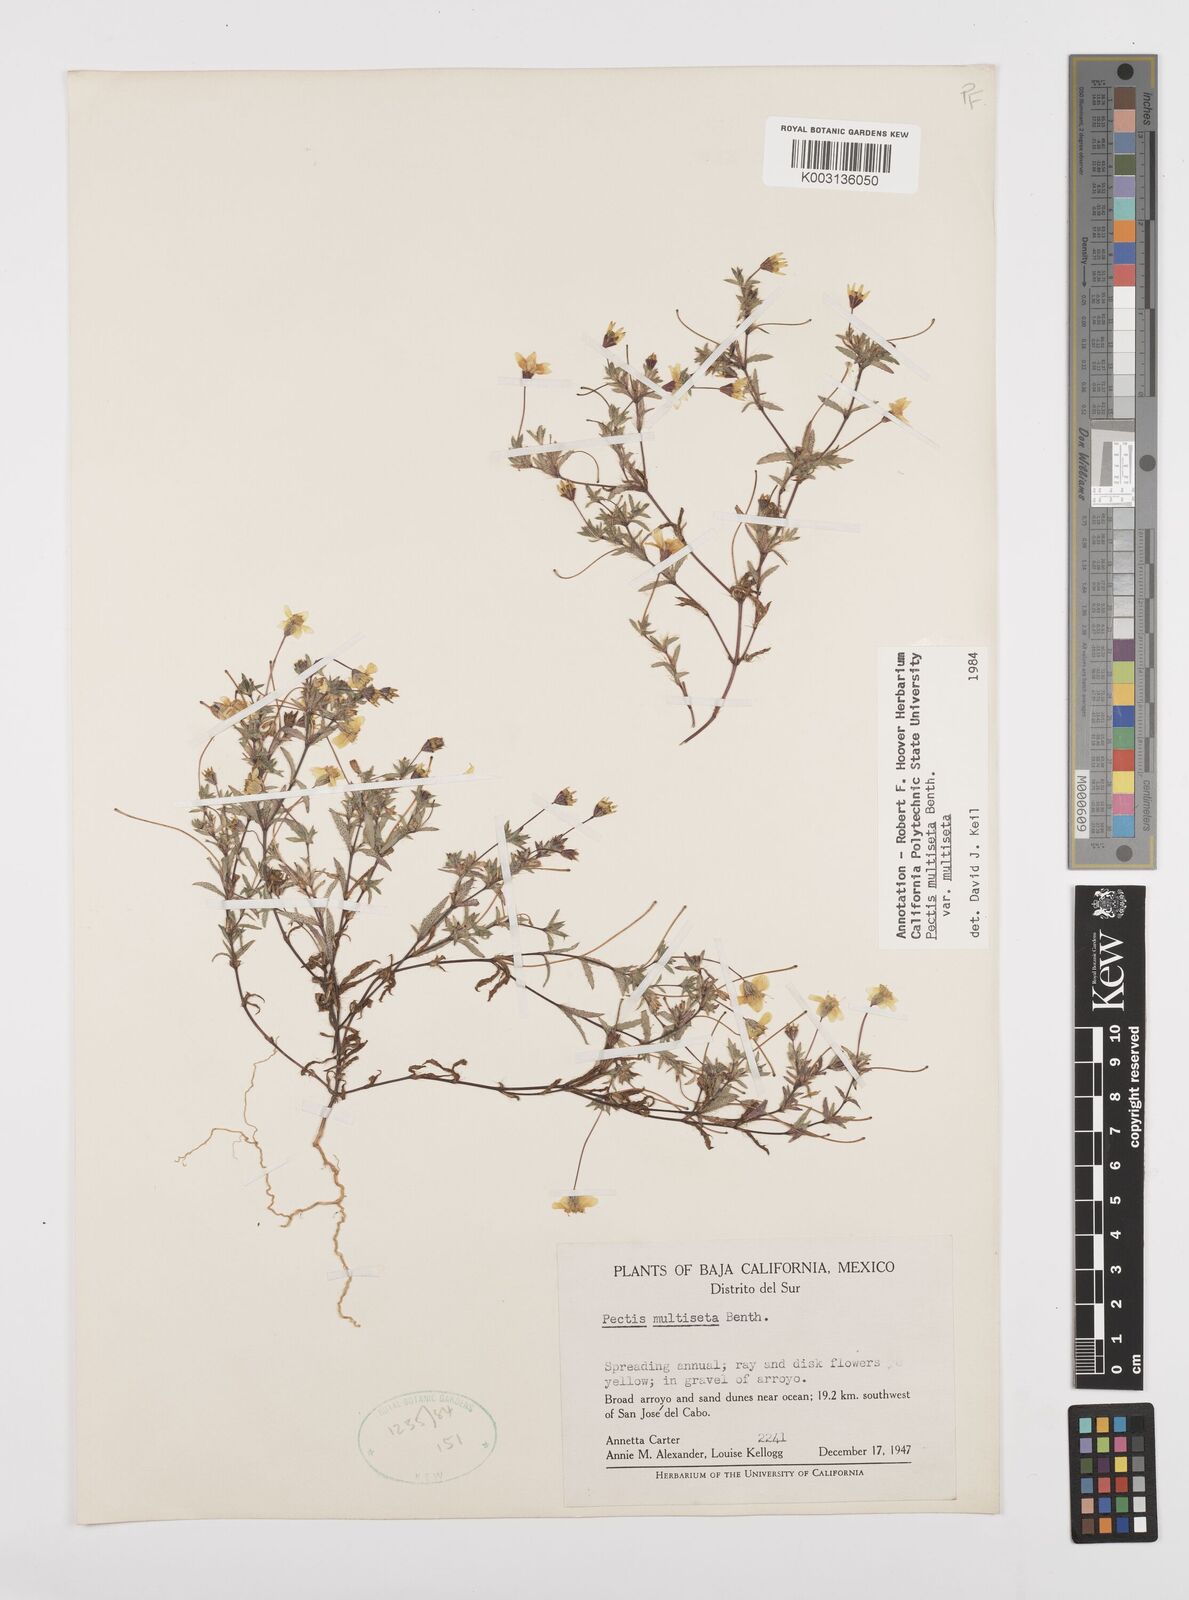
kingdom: Plantae
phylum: Tracheophyta
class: Magnoliopsida
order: Asterales
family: Asteraceae
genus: Pectis
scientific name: Pectis multiseta
